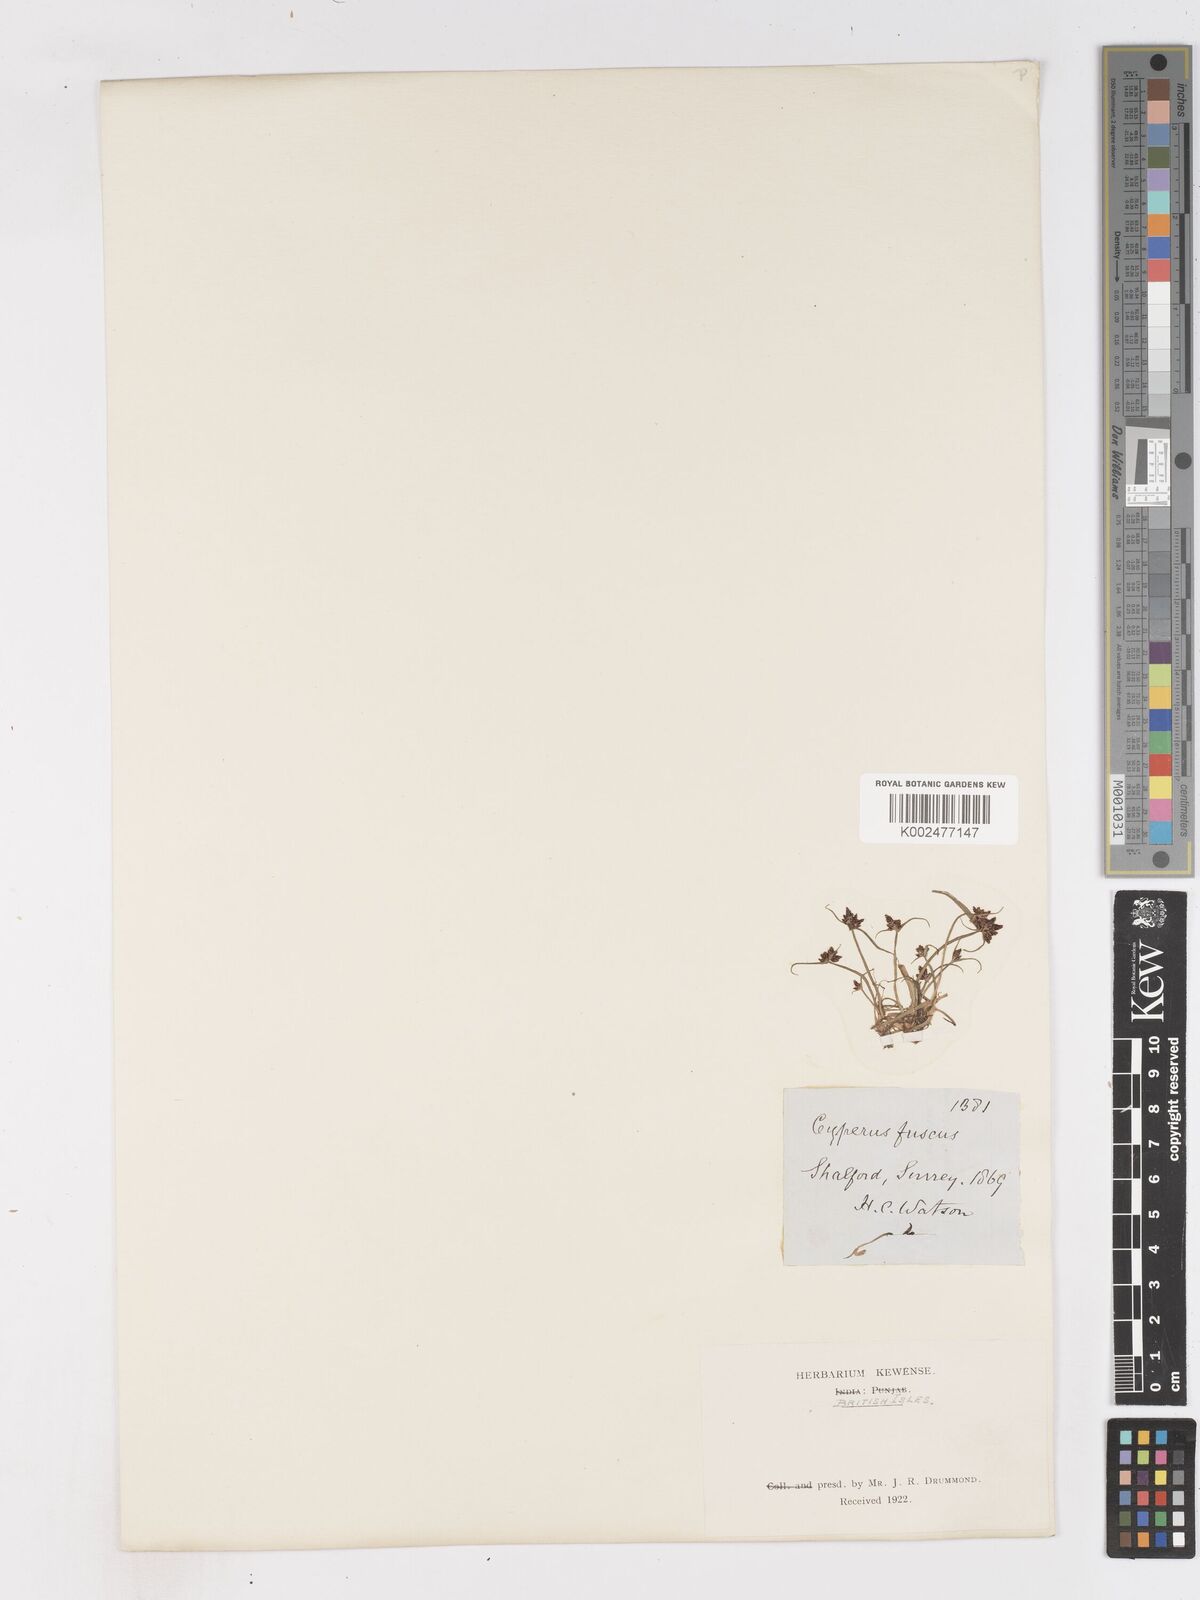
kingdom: Plantae
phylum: Tracheophyta
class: Liliopsida
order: Poales
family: Cyperaceae
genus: Cyperus
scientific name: Cyperus fuscus
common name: Brown galingale
